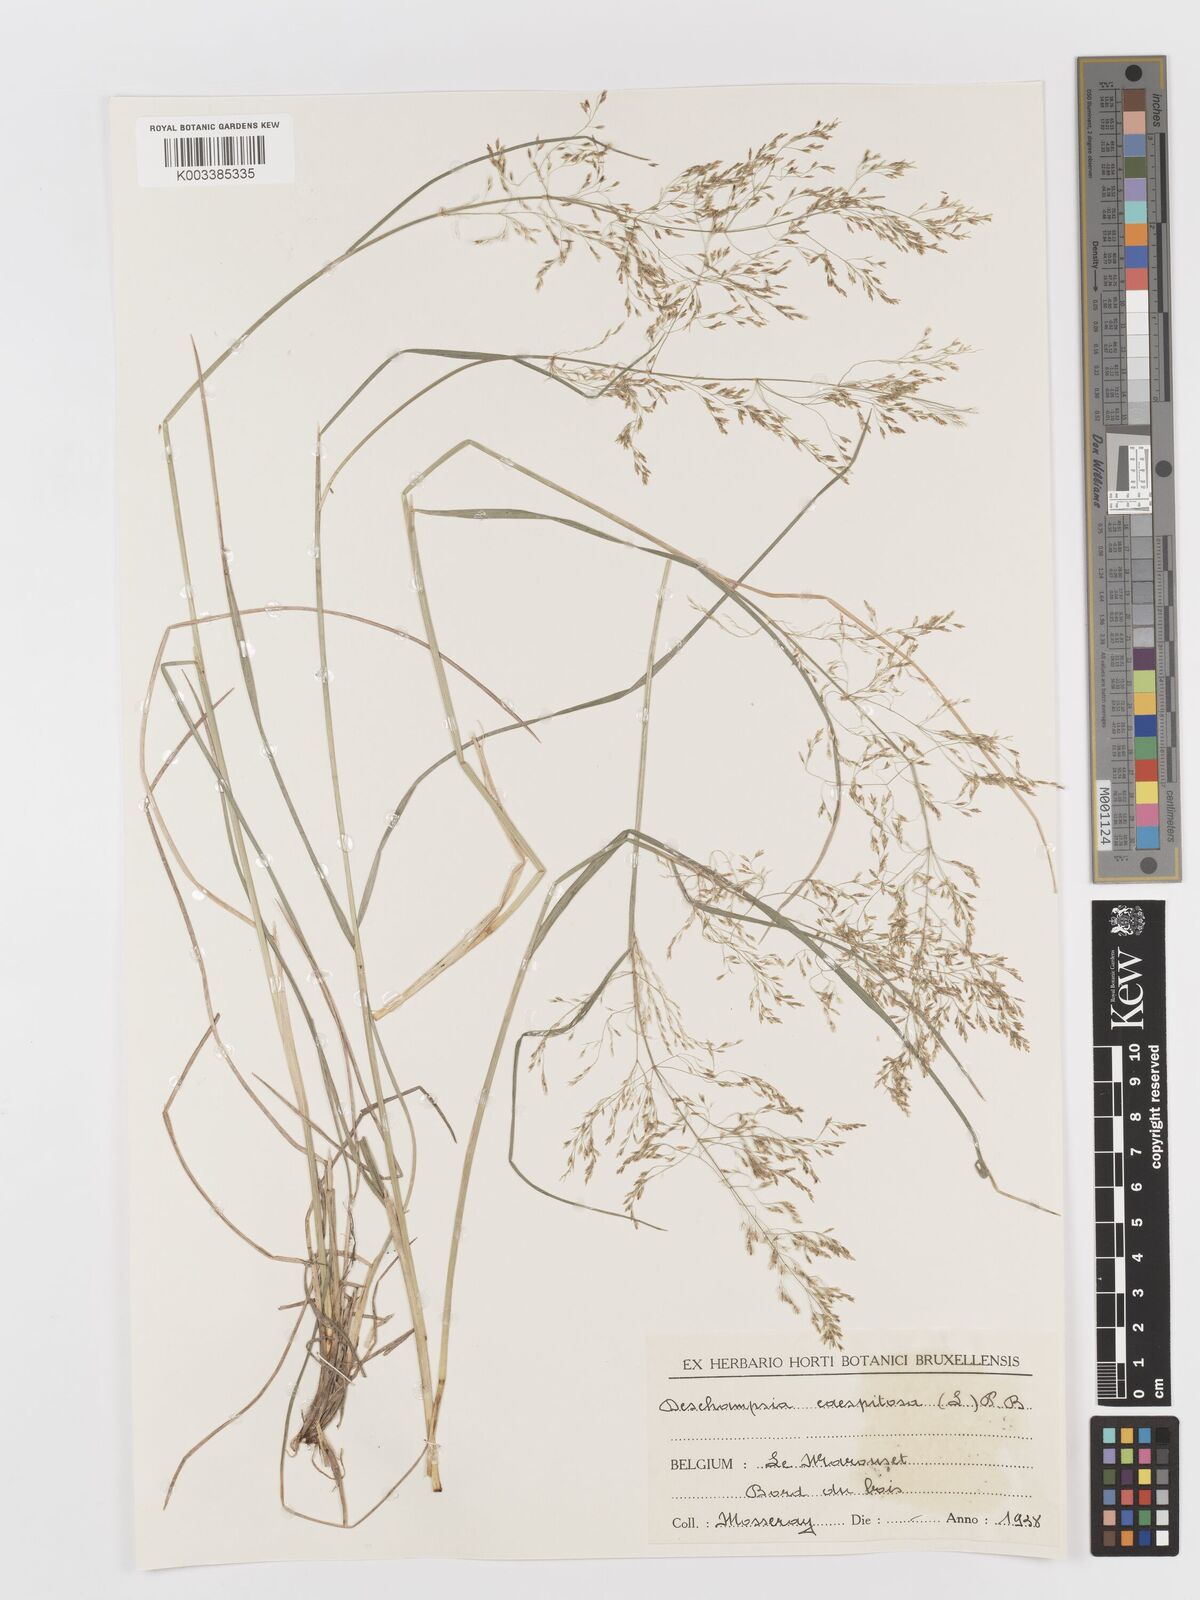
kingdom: Plantae
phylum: Tracheophyta
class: Liliopsida
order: Poales
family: Poaceae
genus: Deschampsia
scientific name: Deschampsia cespitosa
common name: Tufted hair-grass
